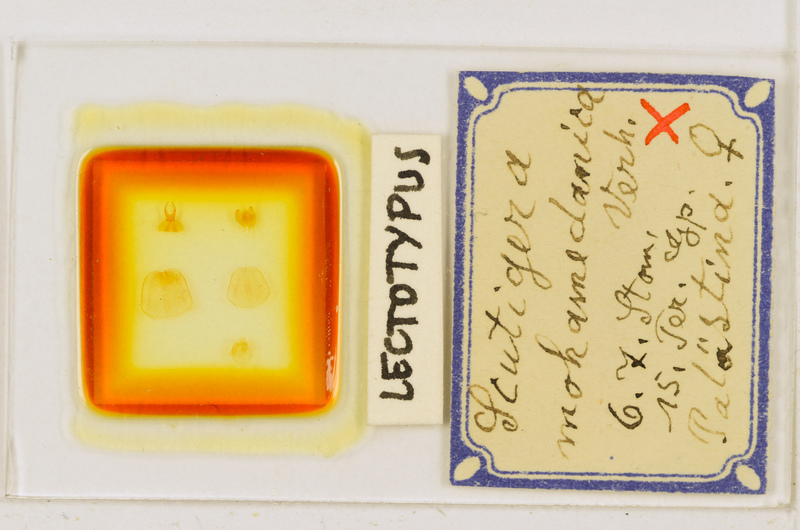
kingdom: Animalia
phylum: Arthropoda
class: Chilopoda
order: Scutigeromorpha
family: Scutigeridae
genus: Scutigera
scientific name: Scutigera coleoptrata
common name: House centipede
